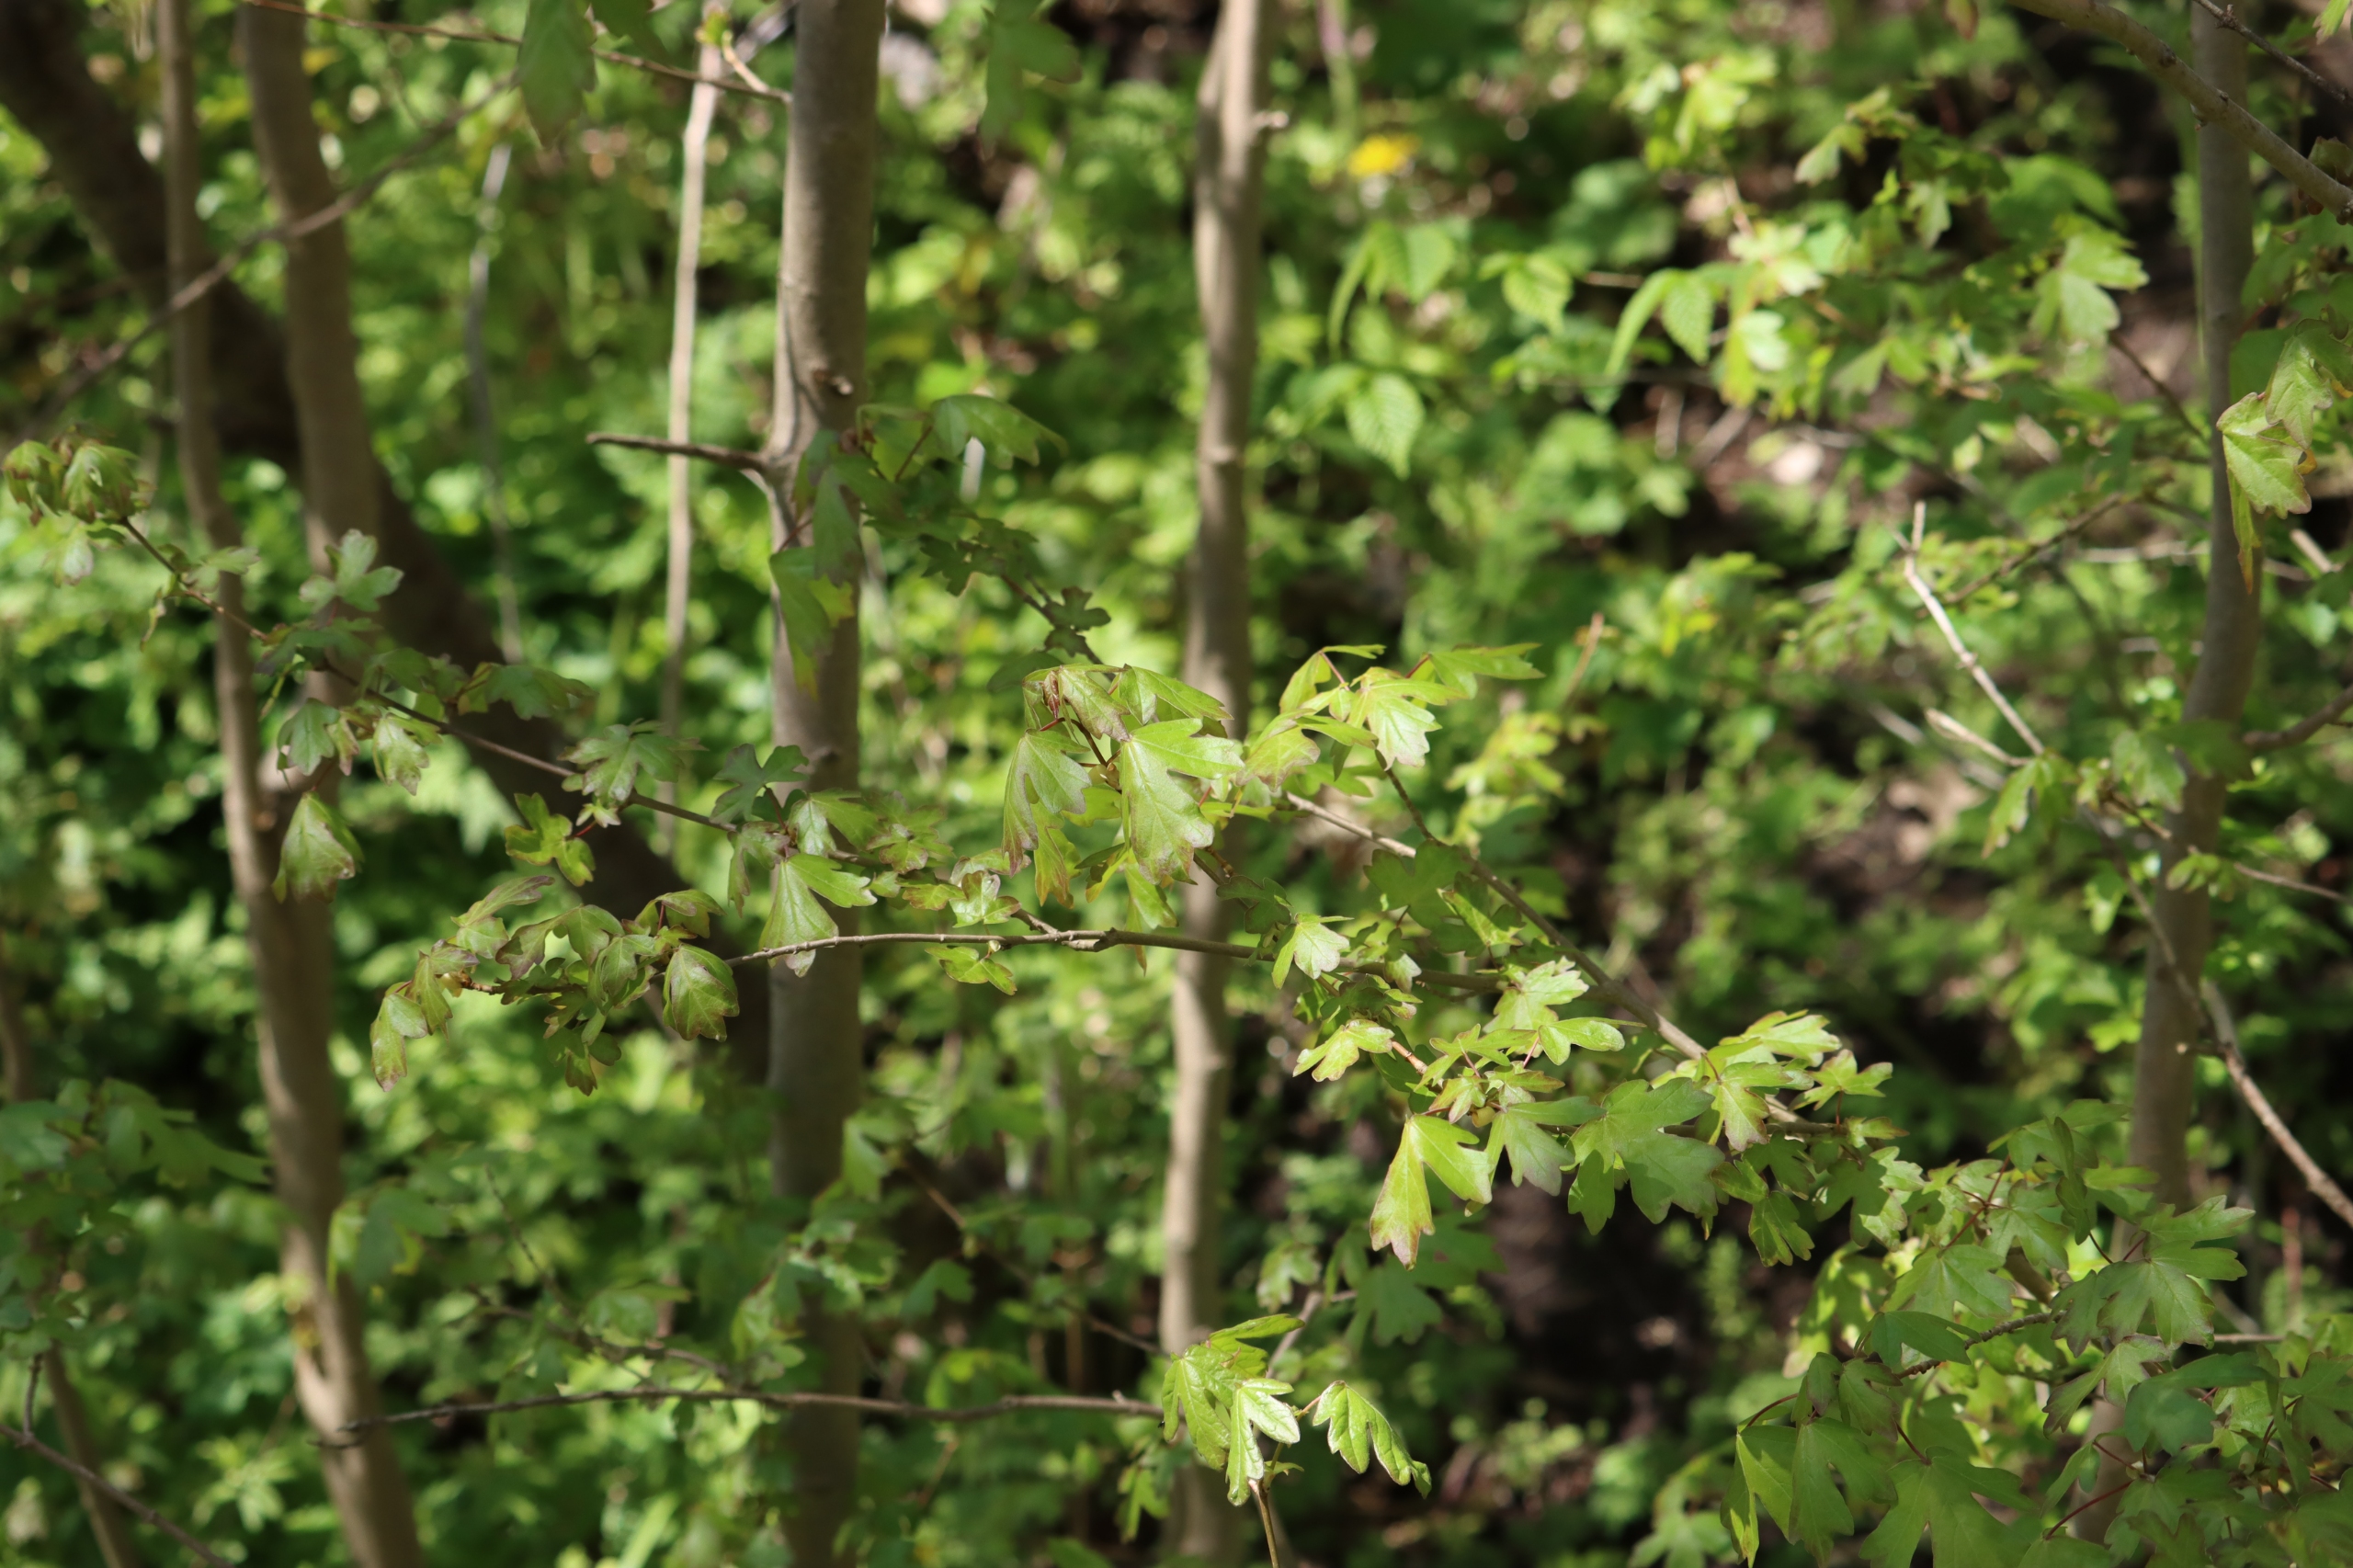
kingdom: Plantae
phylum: Tracheophyta
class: Magnoliopsida
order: Sapindales
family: Sapindaceae
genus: Acer
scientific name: Acer campestre
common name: Navr
